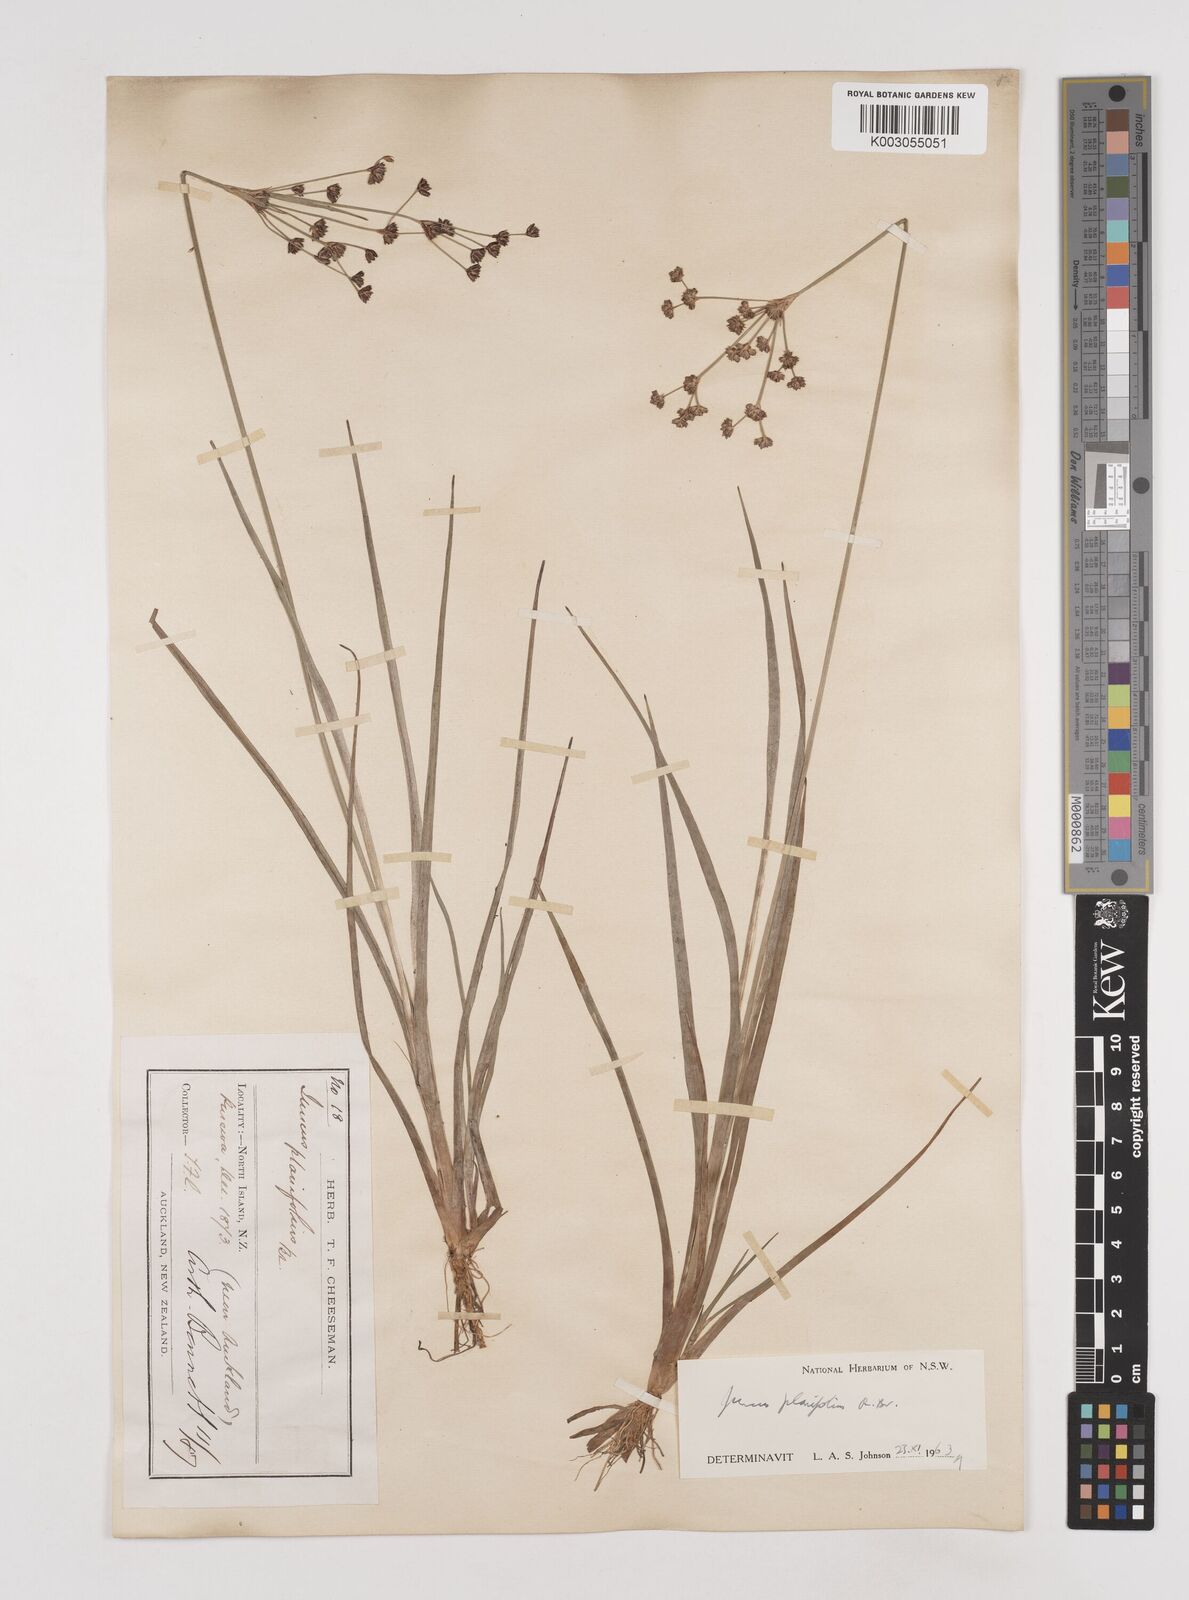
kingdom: Plantae
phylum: Tracheophyta
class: Liliopsida
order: Poales
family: Juncaceae
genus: Juncus
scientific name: Juncus planifolius
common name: Broadleaf rush
